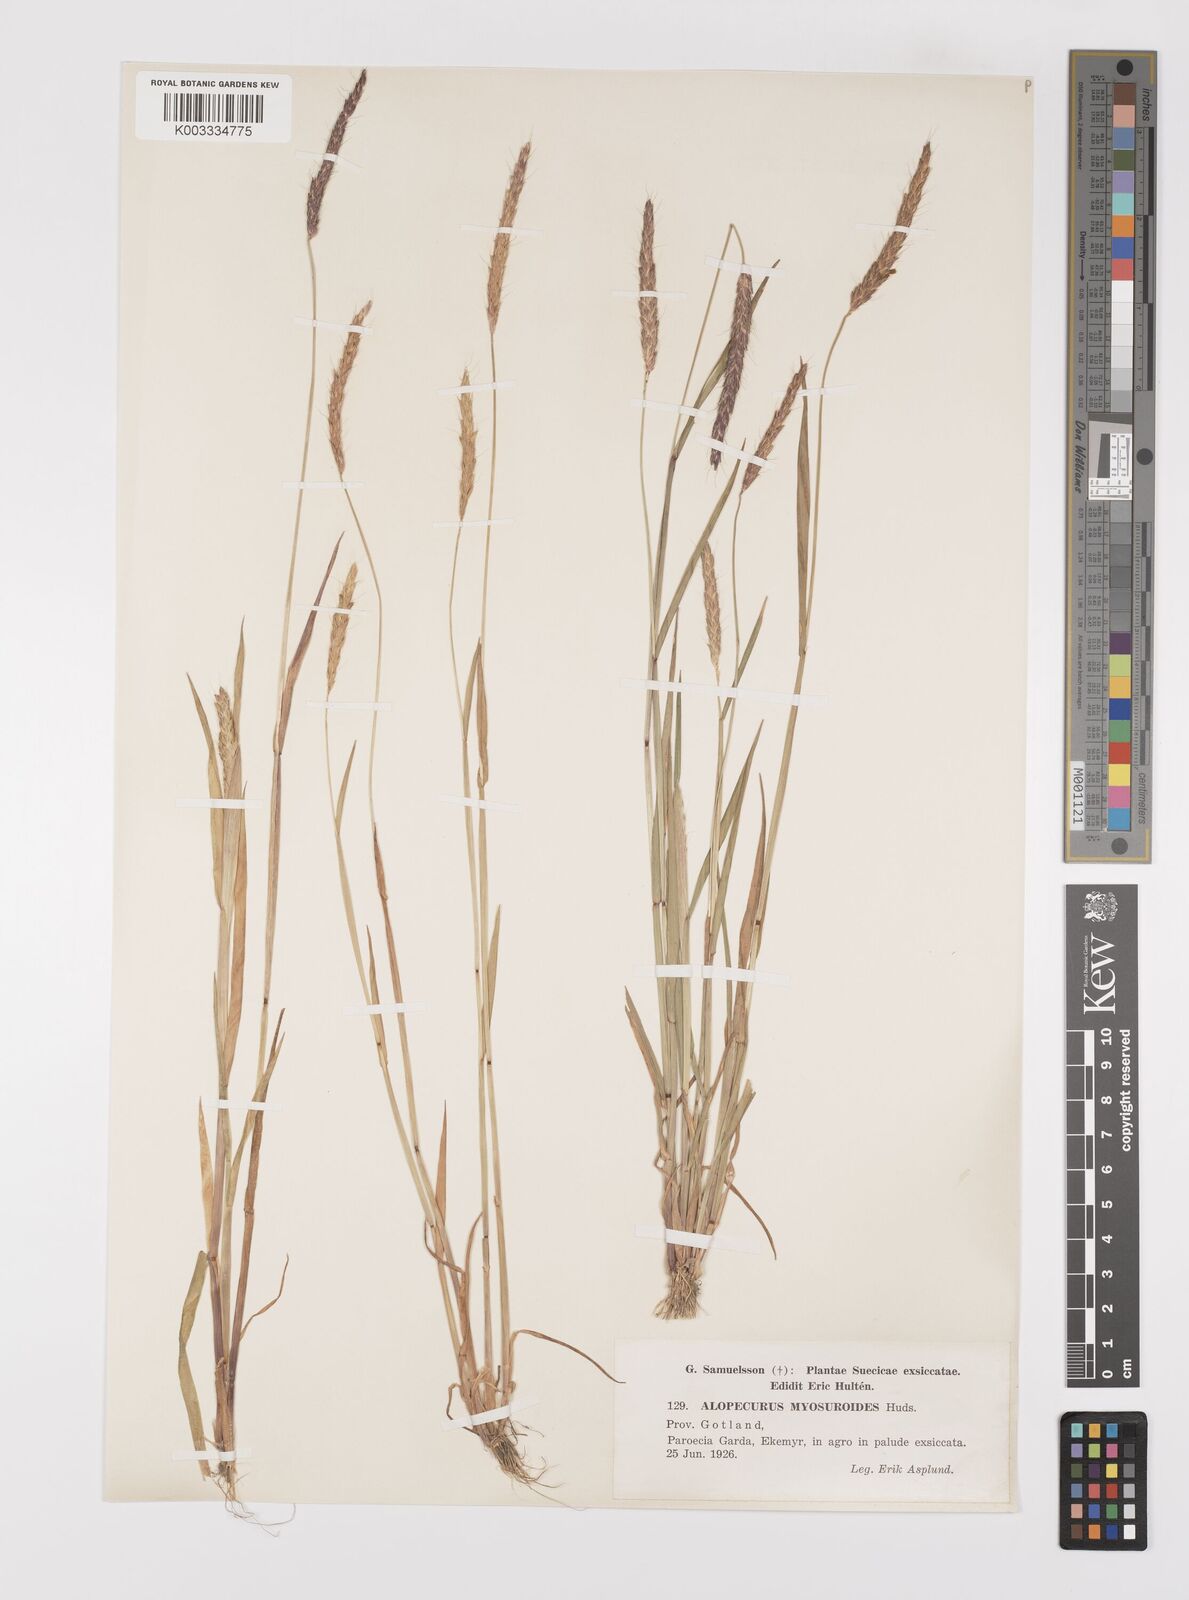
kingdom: Plantae
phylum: Tracheophyta
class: Liliopsida
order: Poales
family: Poaceae
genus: Alopecurus
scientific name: Alopecurus myosuroides
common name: Black-grass
